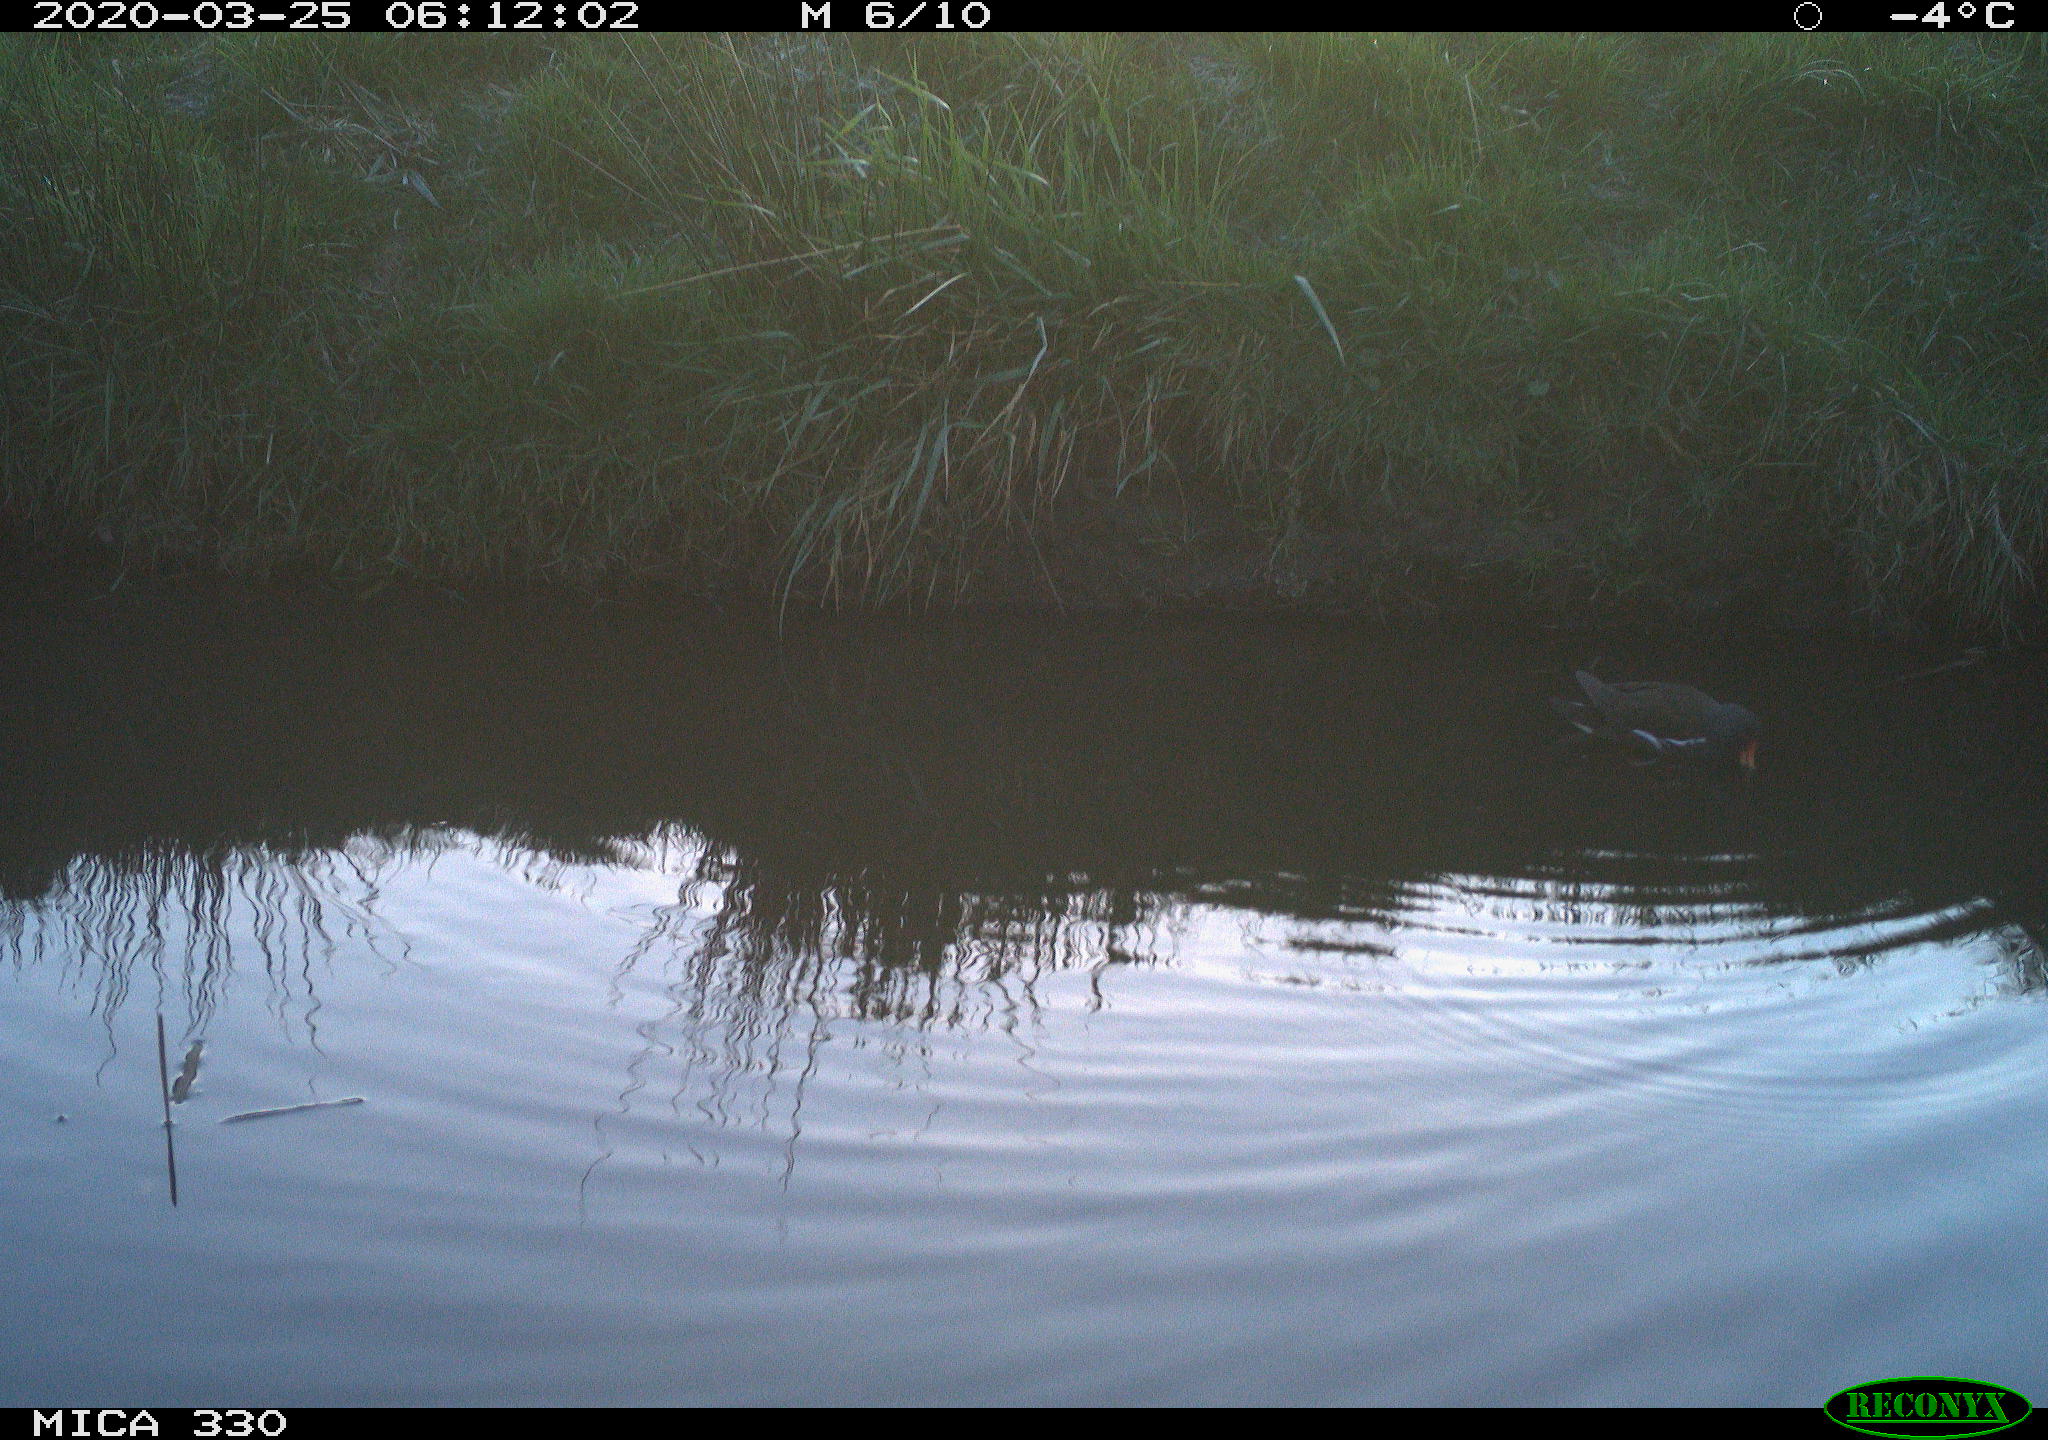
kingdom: Animalia
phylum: Chordata
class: Aves
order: Anseriformes
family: Anatidae
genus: Anas
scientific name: Anas platyrhynchos
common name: Mallard
